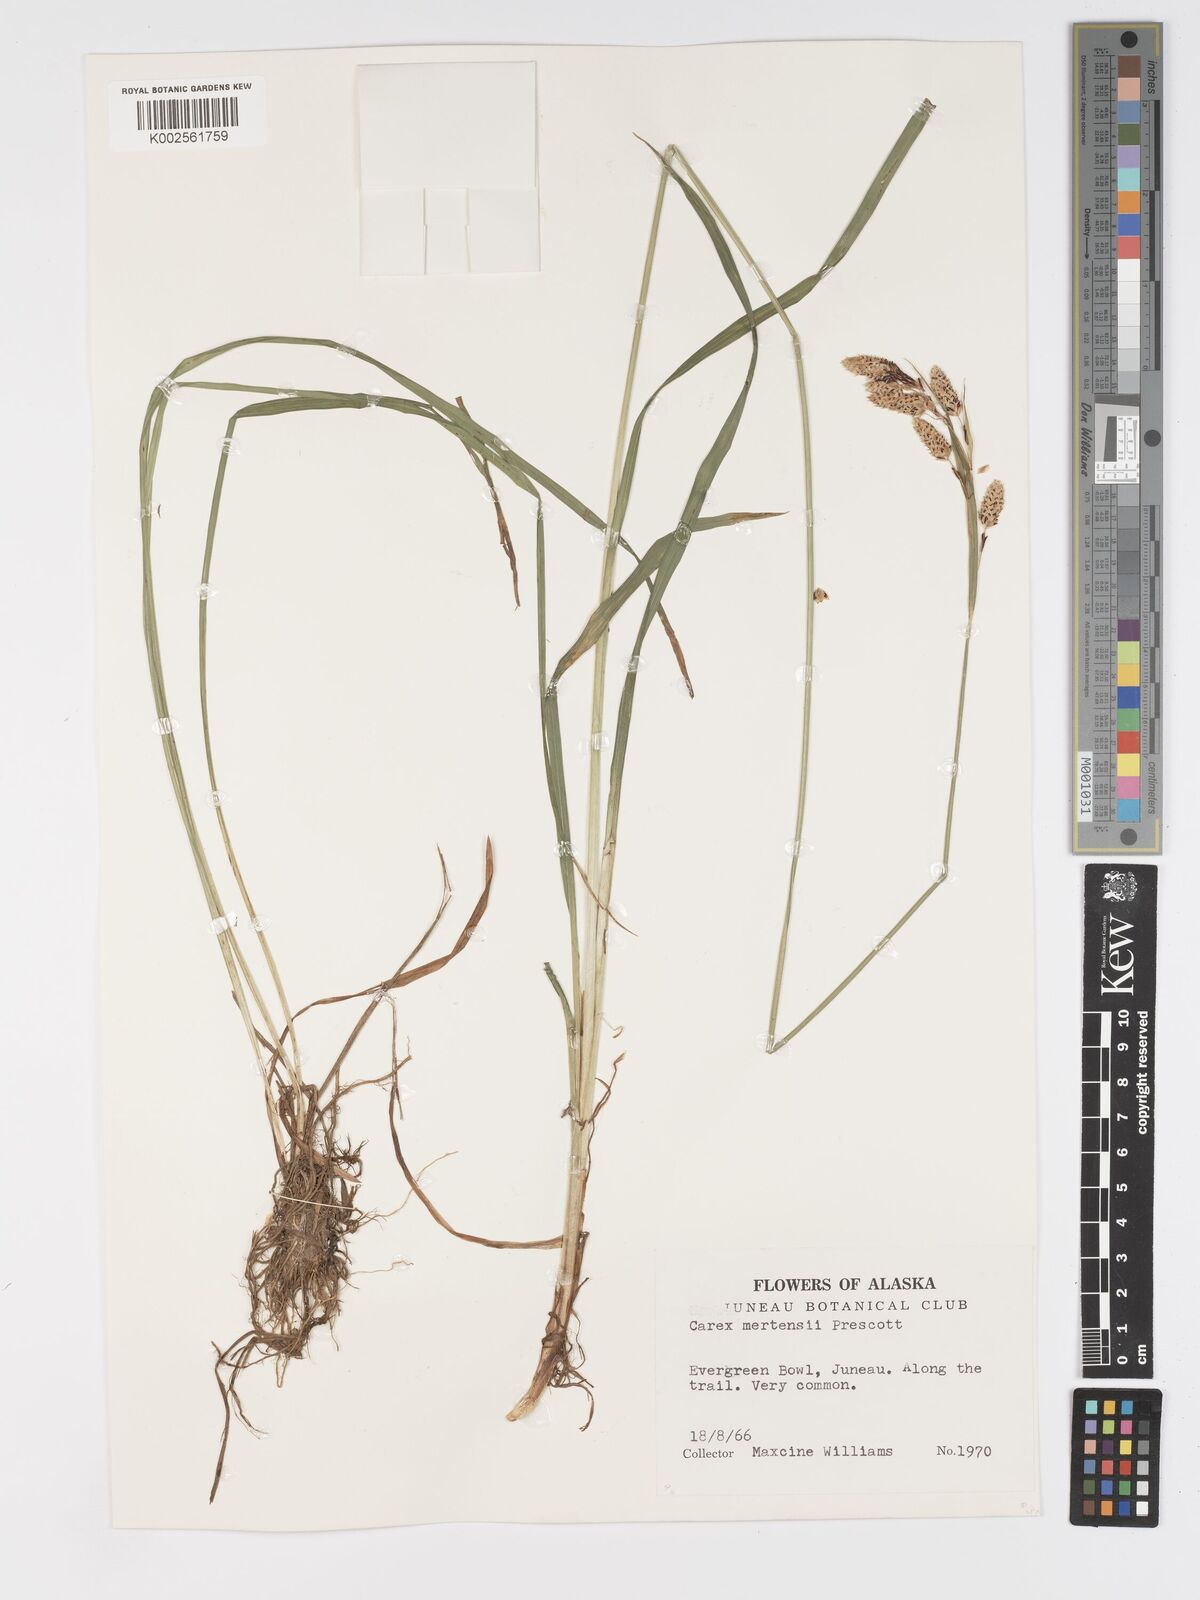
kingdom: Plantae
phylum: Tracheophyta
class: Liliopsida
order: Poales
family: Cyperaceae
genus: Carex
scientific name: Carex mertensii
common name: Mertens' sedge
